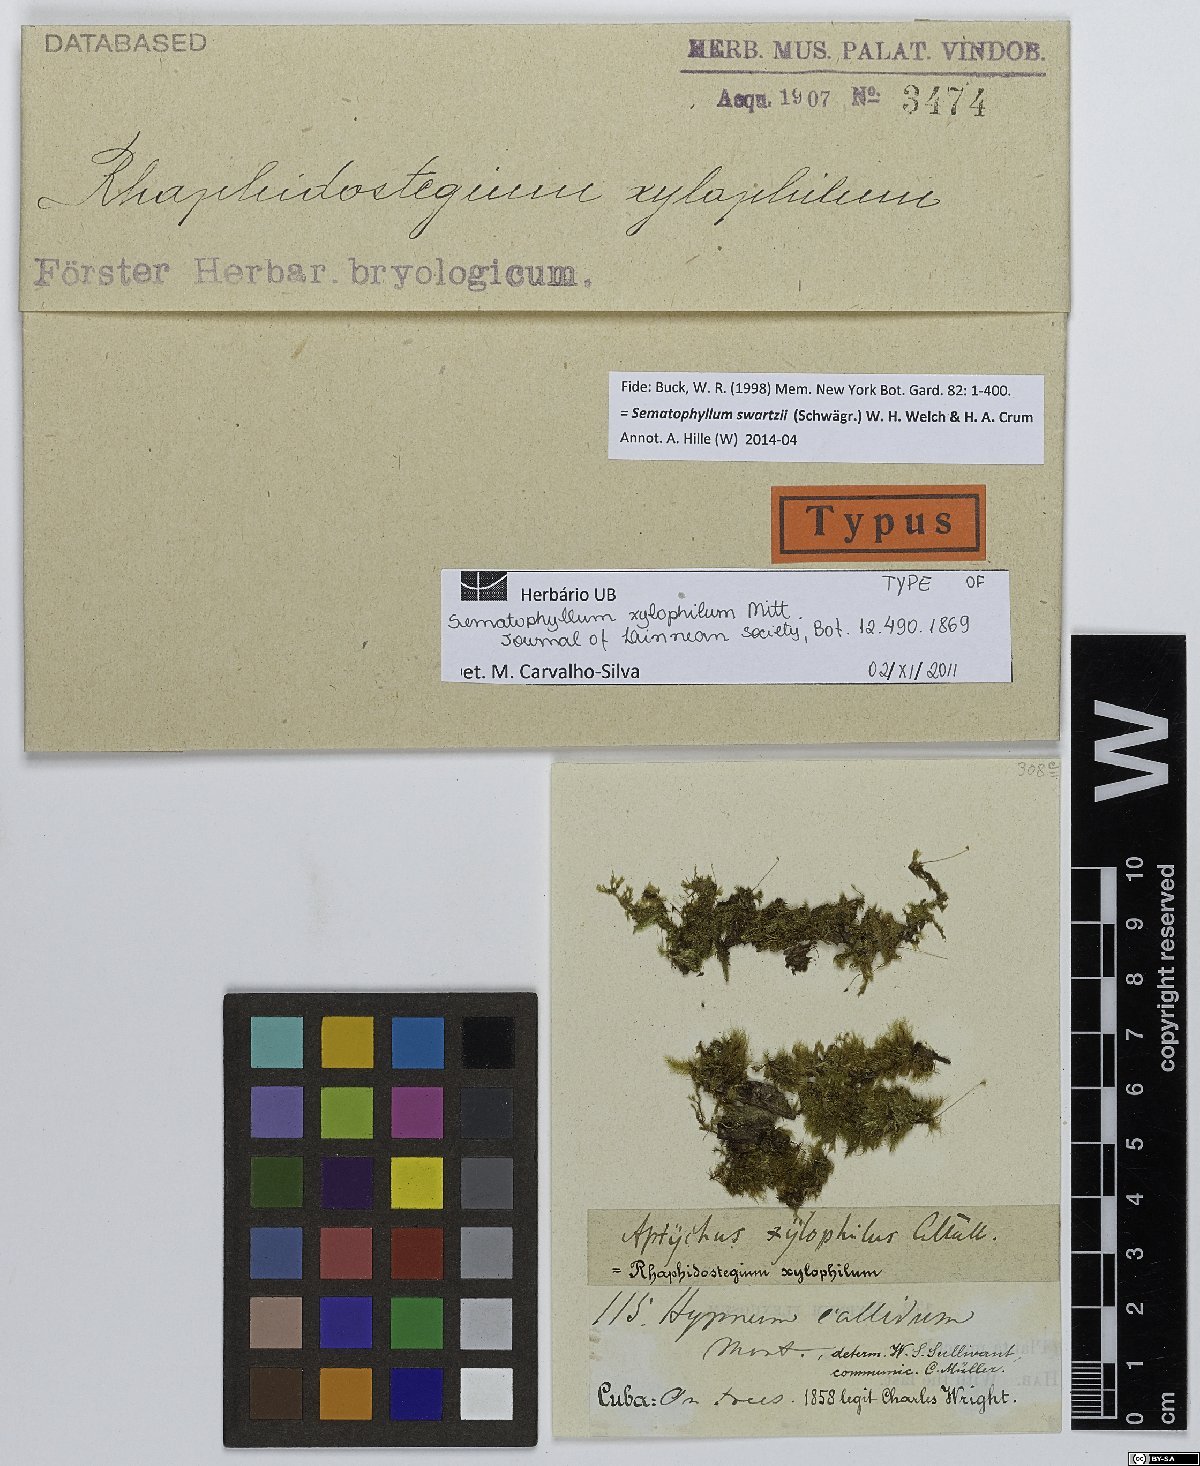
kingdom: Plantae
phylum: Bryophyta
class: Bryopsida
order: Hypnales
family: Sematophyllaceae
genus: Sematophyllum
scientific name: Sematophyllum swartzii
